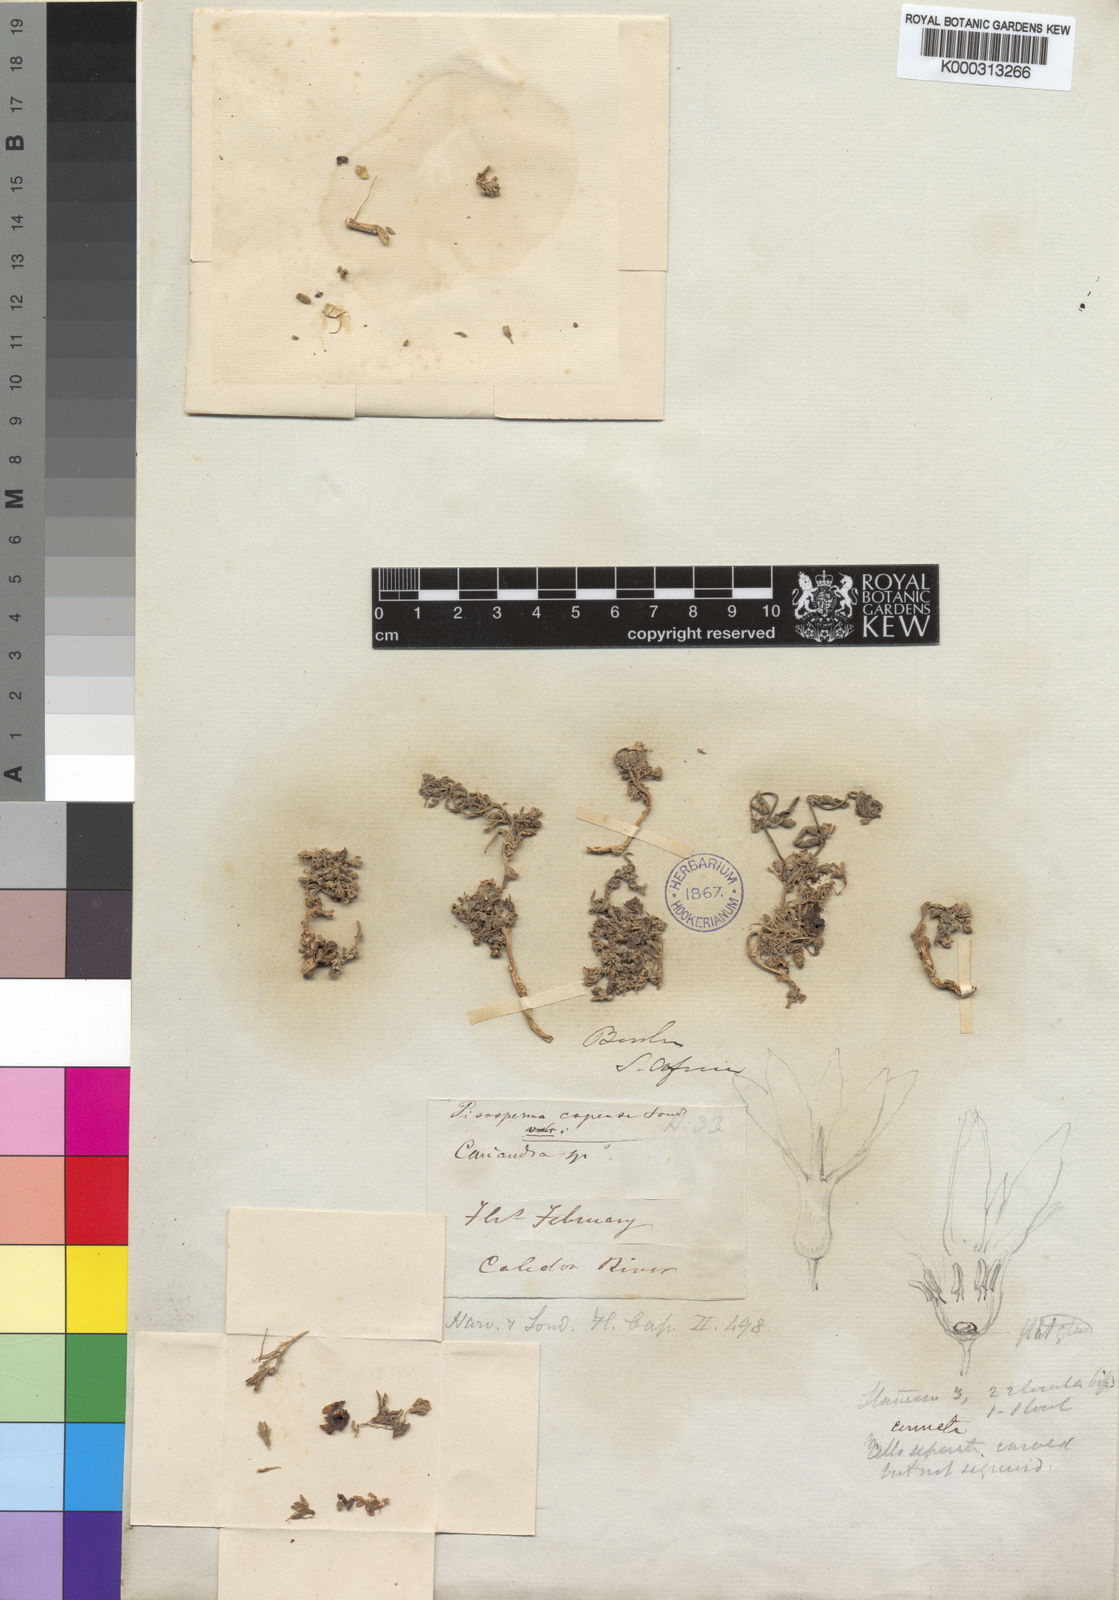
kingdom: Plantae
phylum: Tracheophyta
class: Magnoliopsida
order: Cucurbitales
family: Cucurbitaceae
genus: Kedrostis
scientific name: Kedrostis capensis
